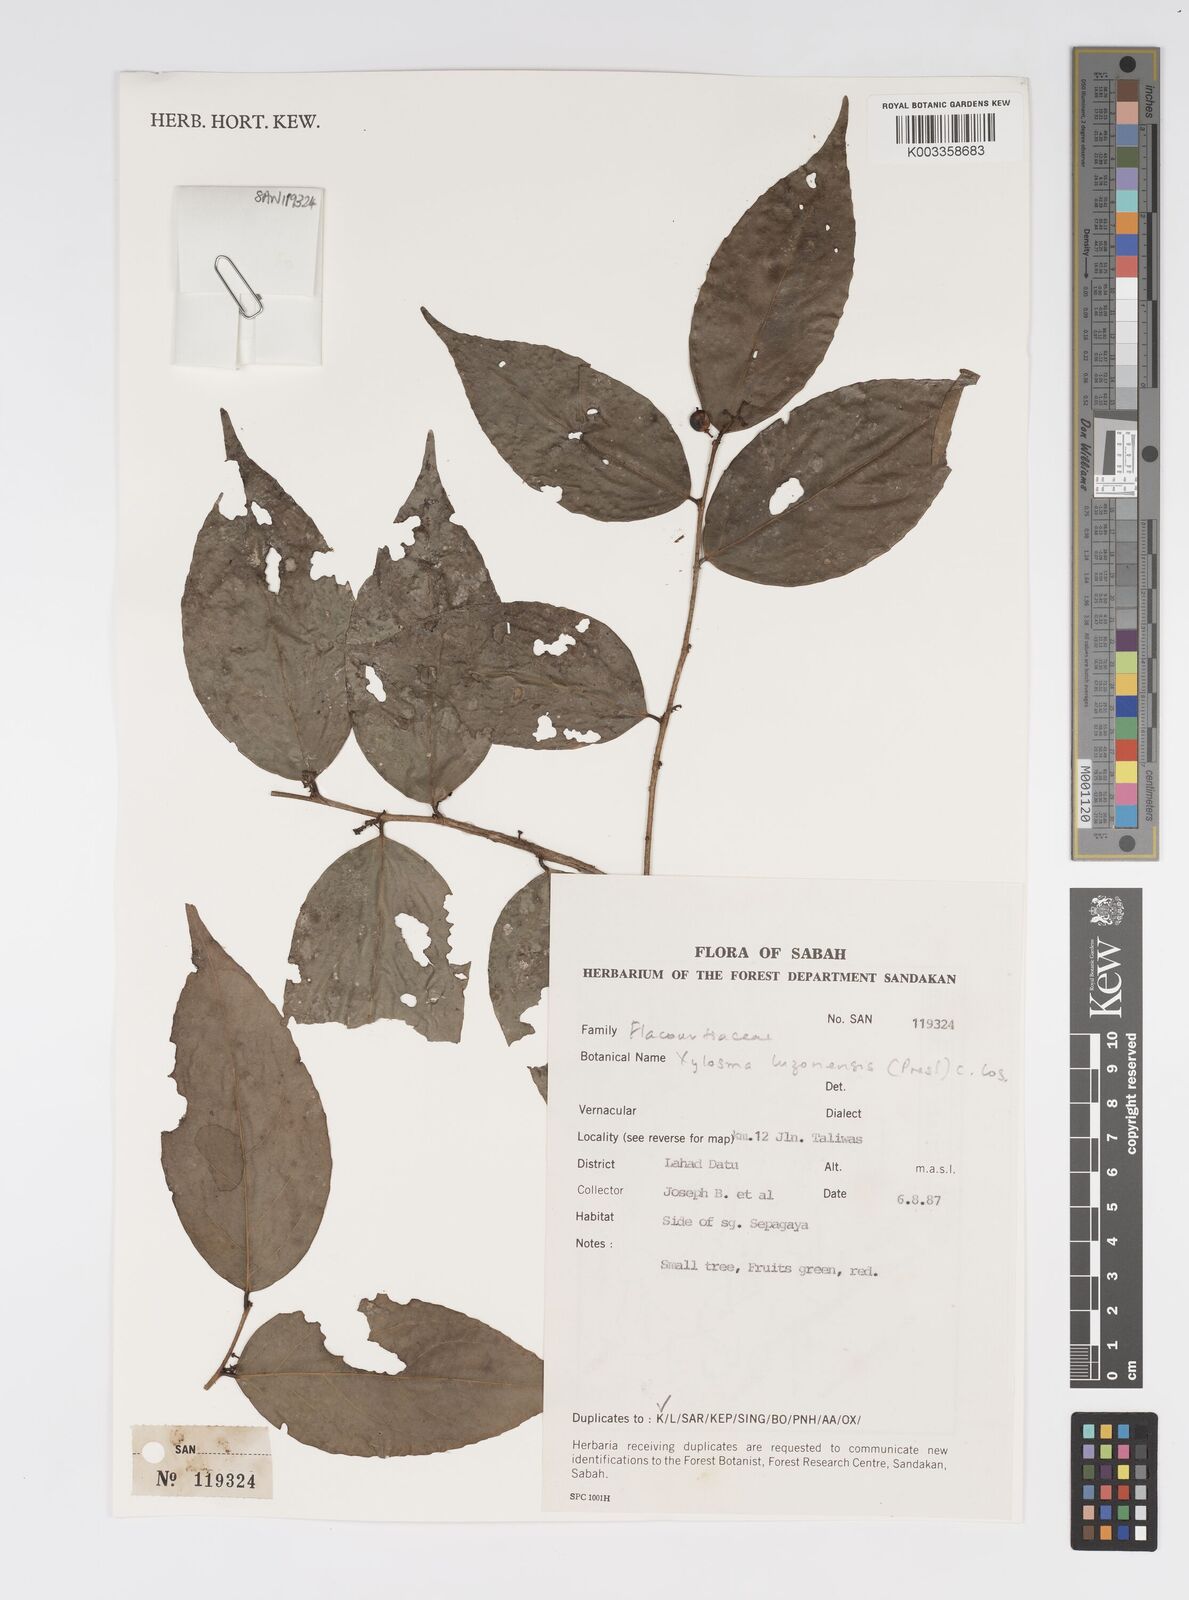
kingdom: Plantae
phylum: Tracheophyta
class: Magnoliopsida
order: Malpighiales
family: Salicaceae
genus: Xylosma
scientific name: Xylosma luzonensis
